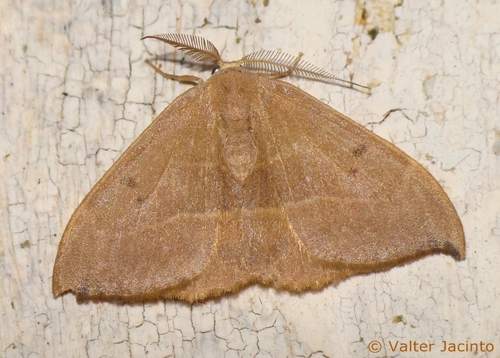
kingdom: Animalia
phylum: Arthropoda
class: Insecta
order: Lepidoptera
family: Drepanidae
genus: Watsonalla
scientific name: Watsonalla uncinula
